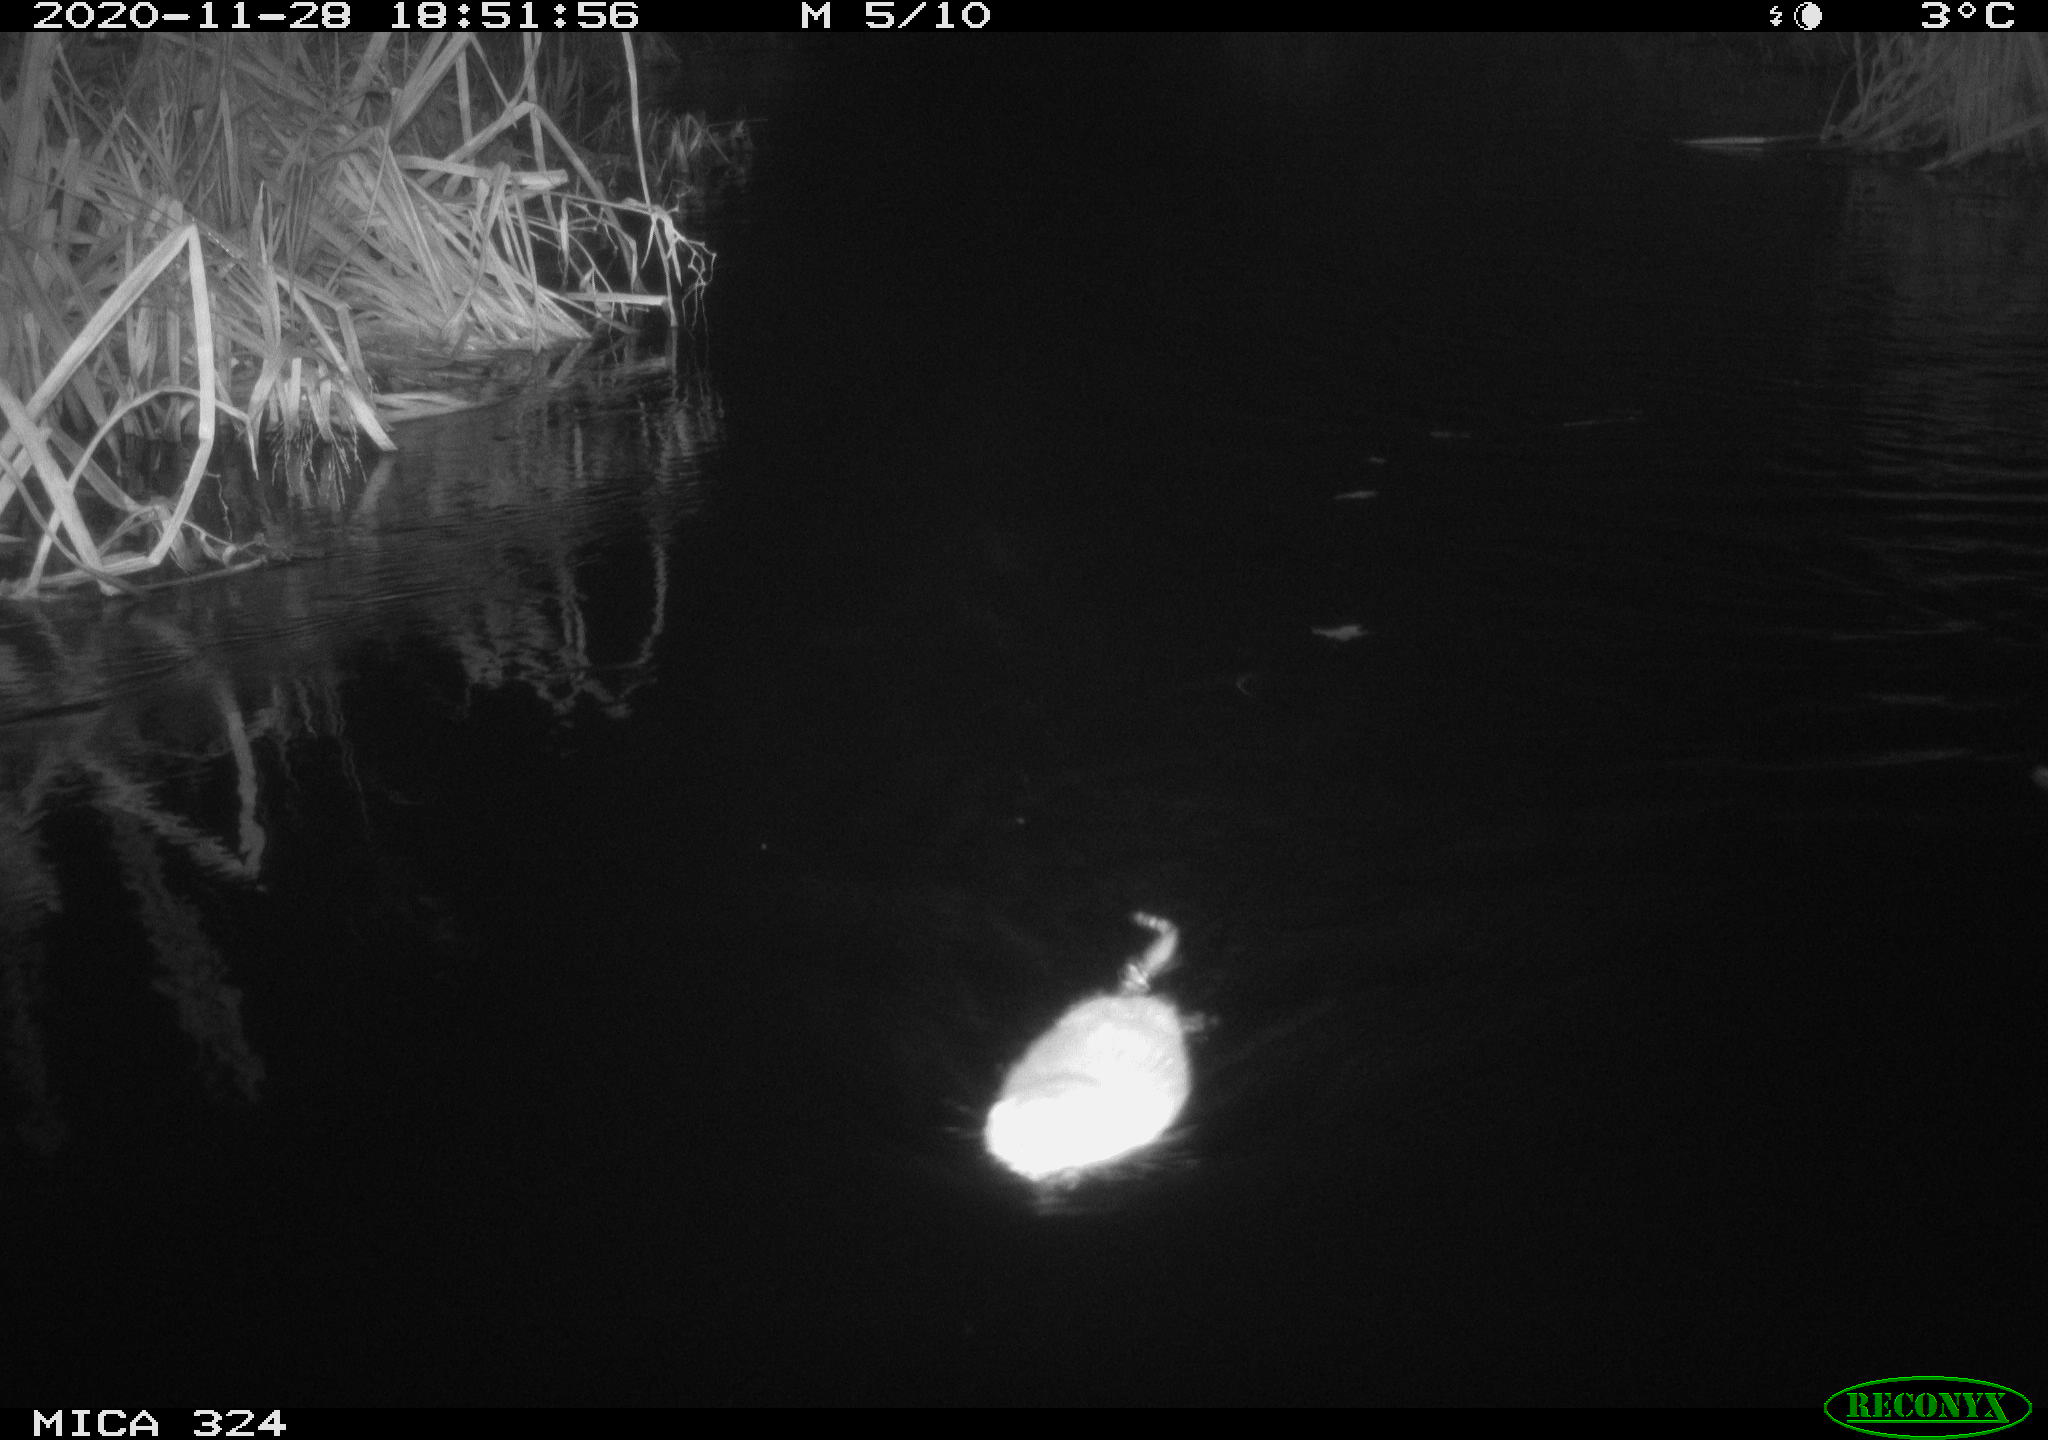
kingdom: Animalia
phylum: Chordata
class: Mammalia
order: Rodentia
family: Cricetidae
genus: Ondatra
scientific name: Ondatra zibethicus
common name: Muskrat
